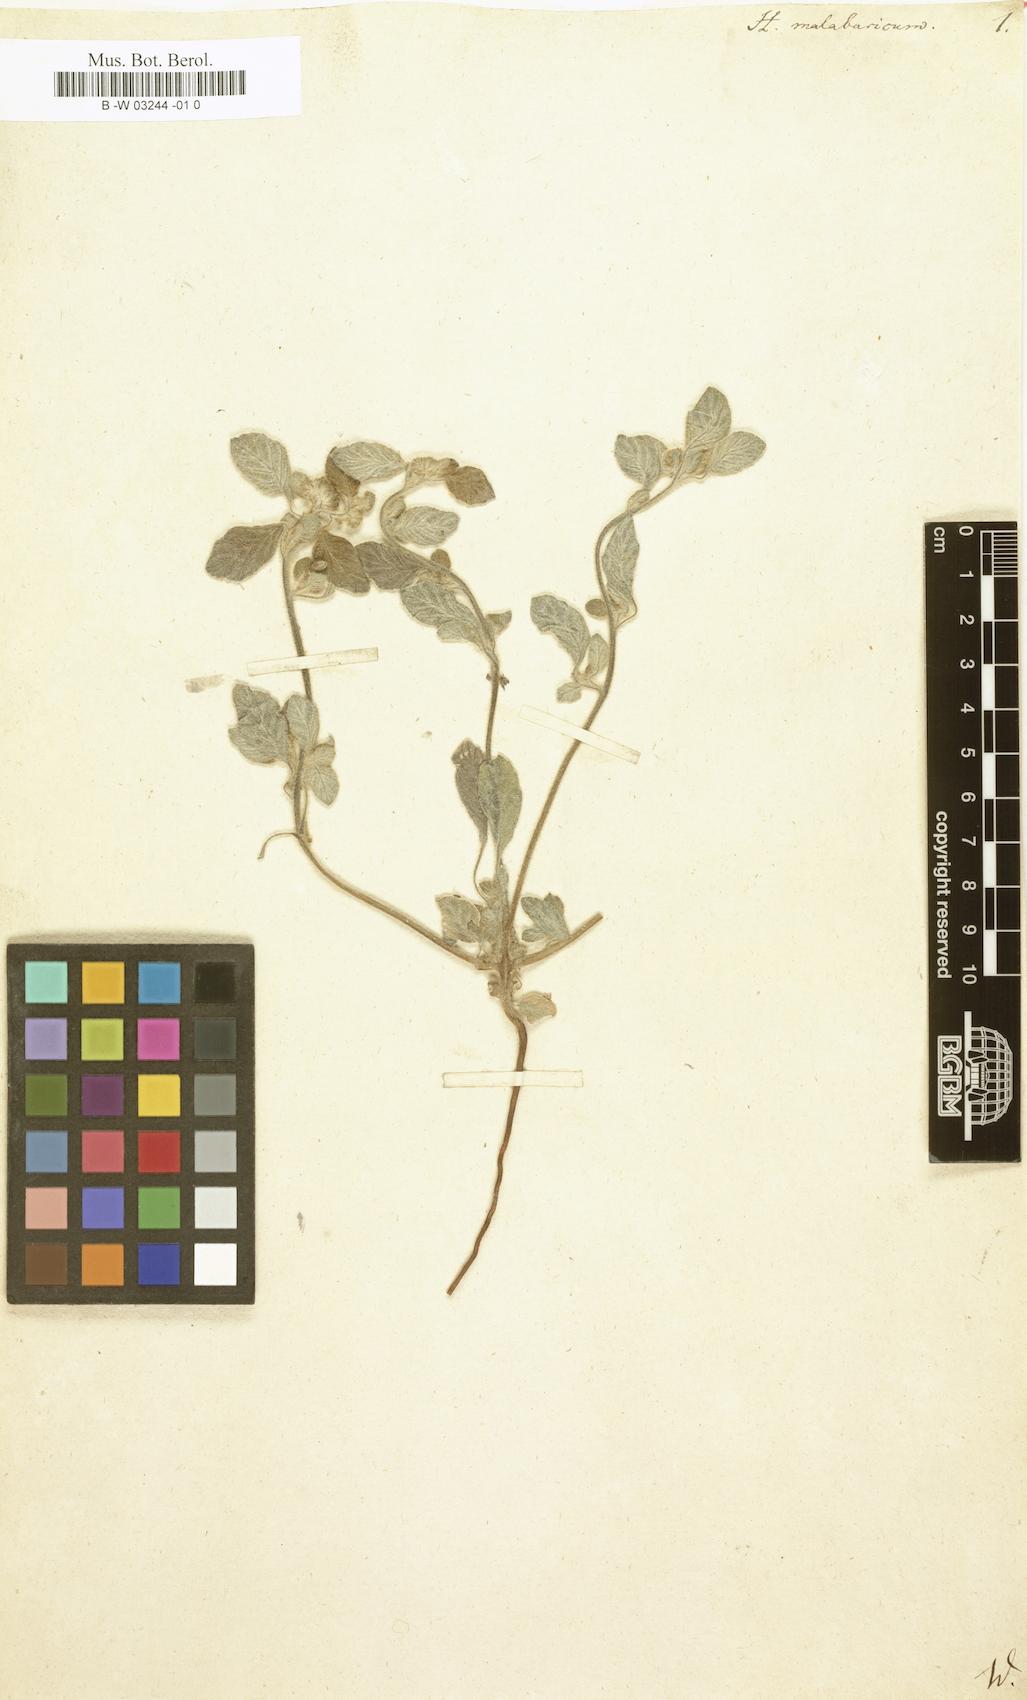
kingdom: Plantae
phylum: Tracheophyta
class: Magnoliopsida
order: Boraginales
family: Heliotropiaceae
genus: Heliotropium
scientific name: Heliotropium supinum
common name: Dwarf heliotrope
